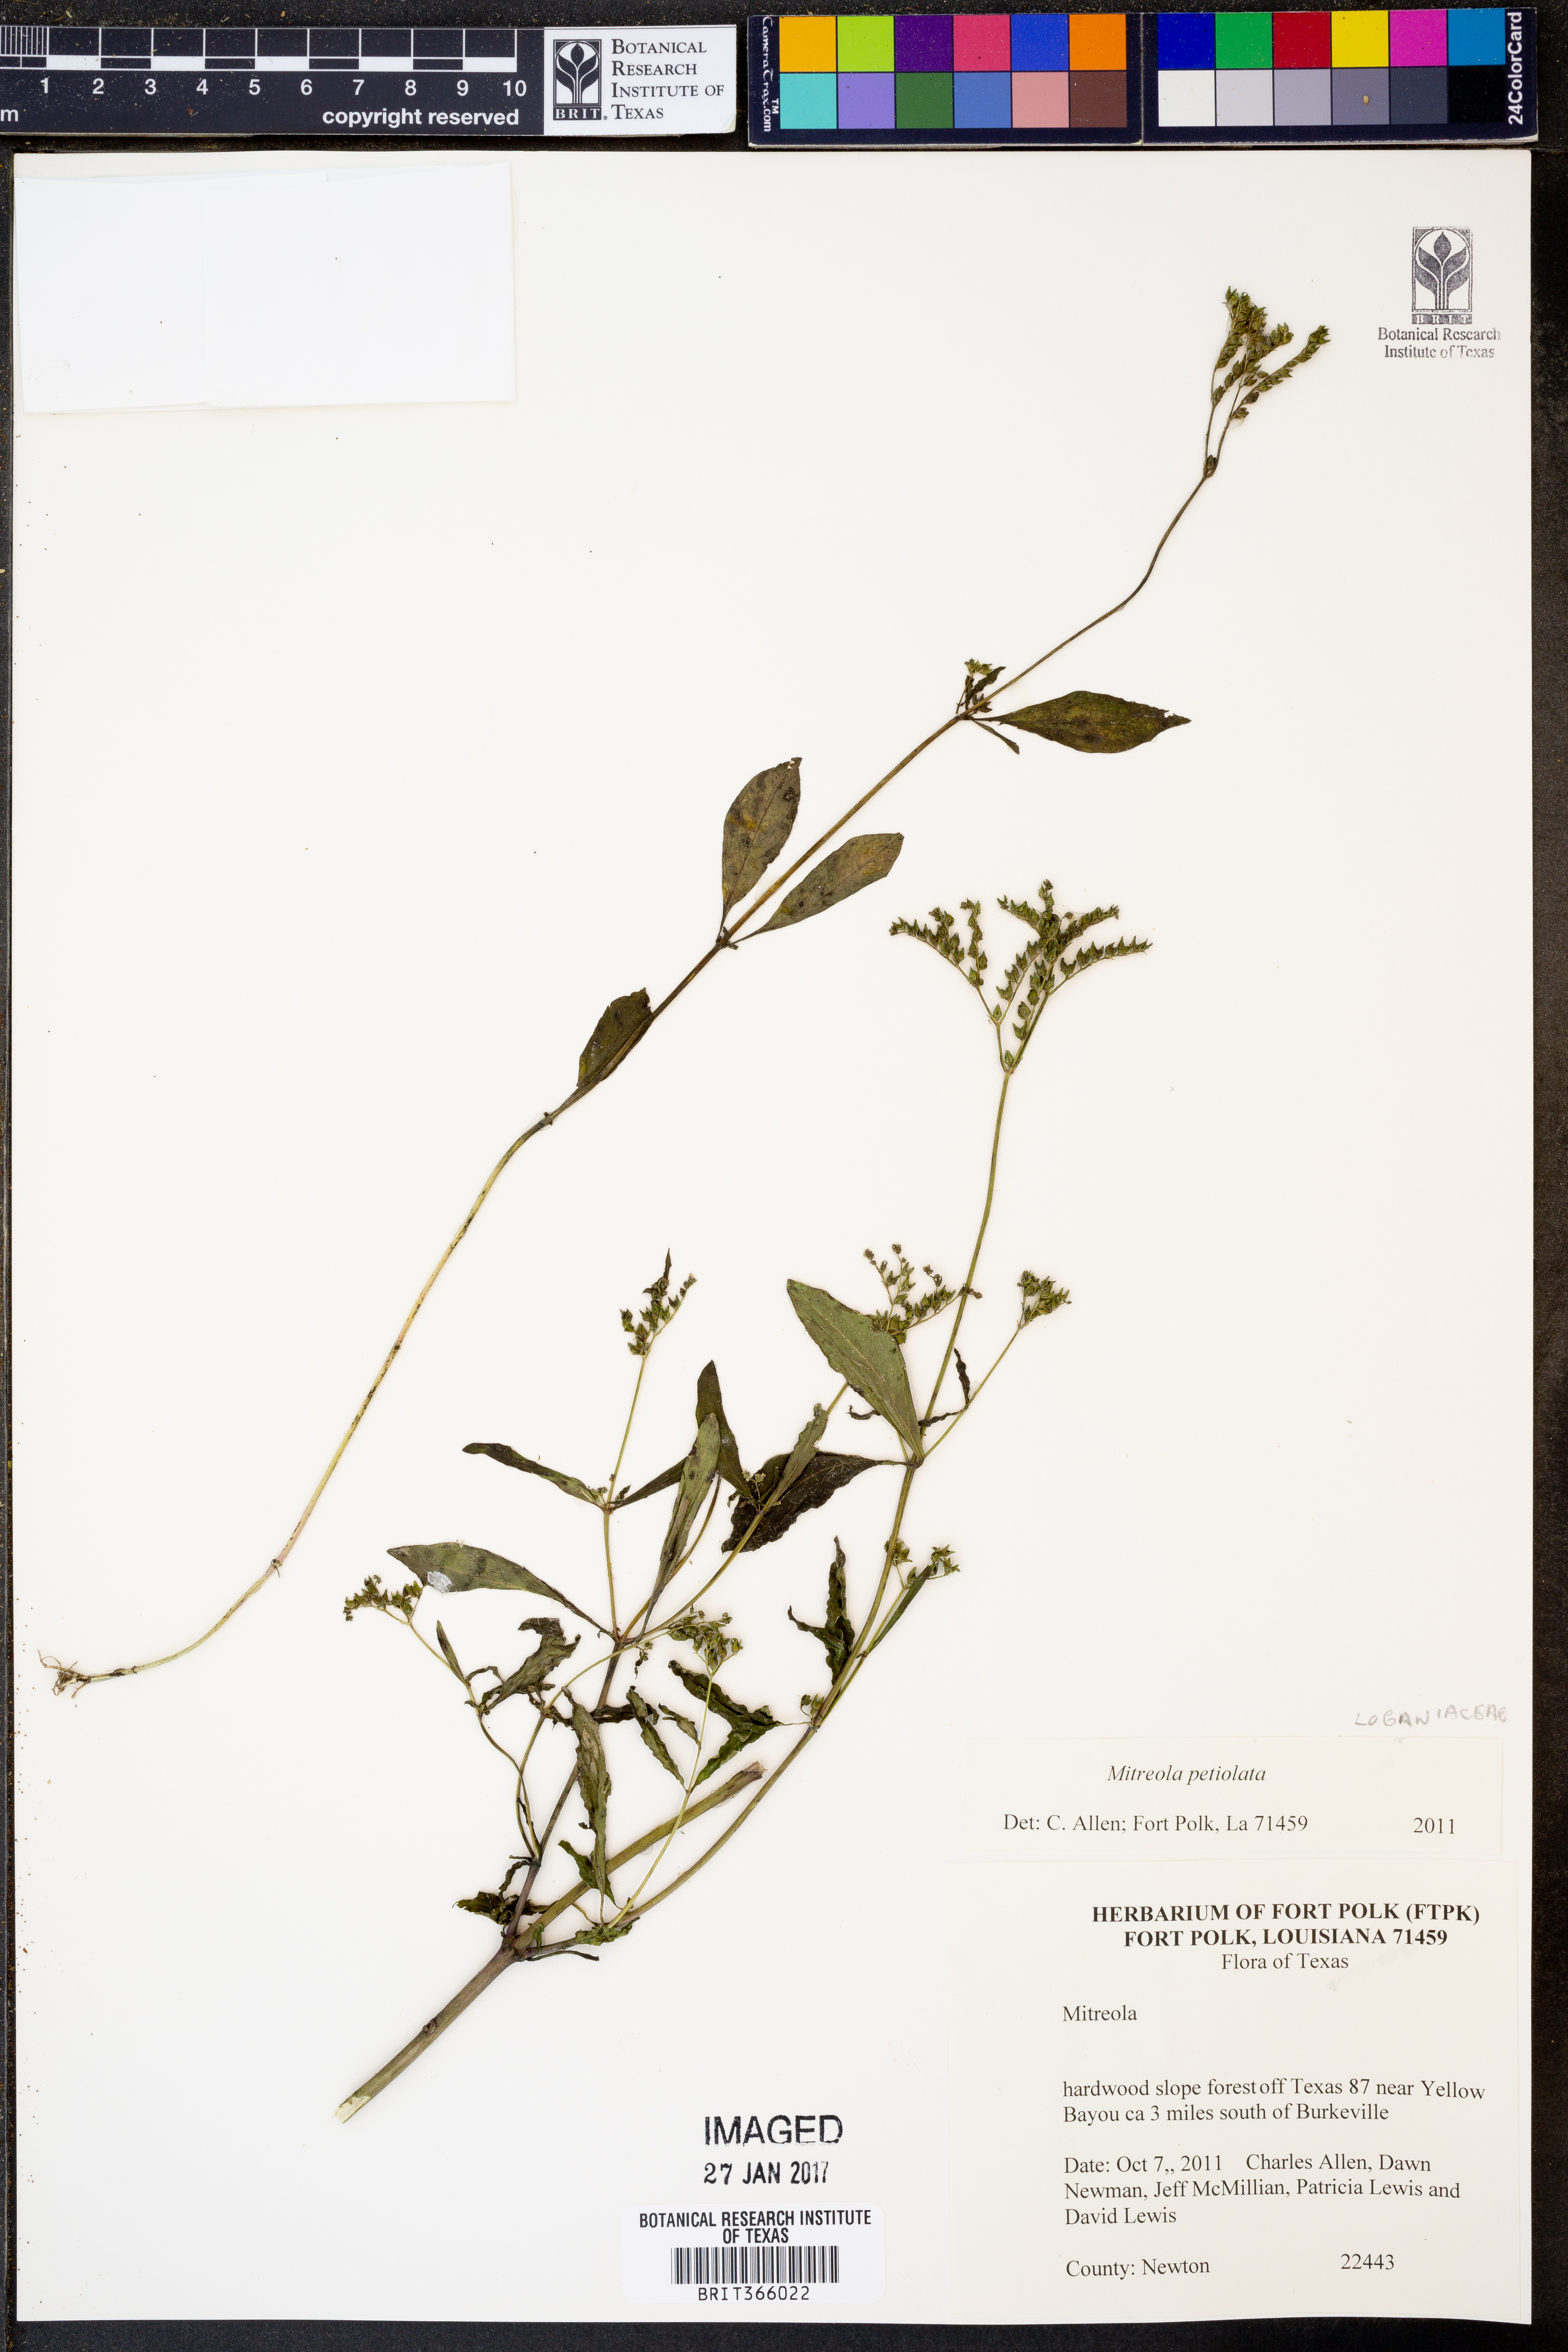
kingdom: Plantae
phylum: Tracheophyta
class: Magnoliopsida
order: Gentianales
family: Loganiaceae
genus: Mitreola
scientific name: Mitreola petiolata
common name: Lax hornpod
